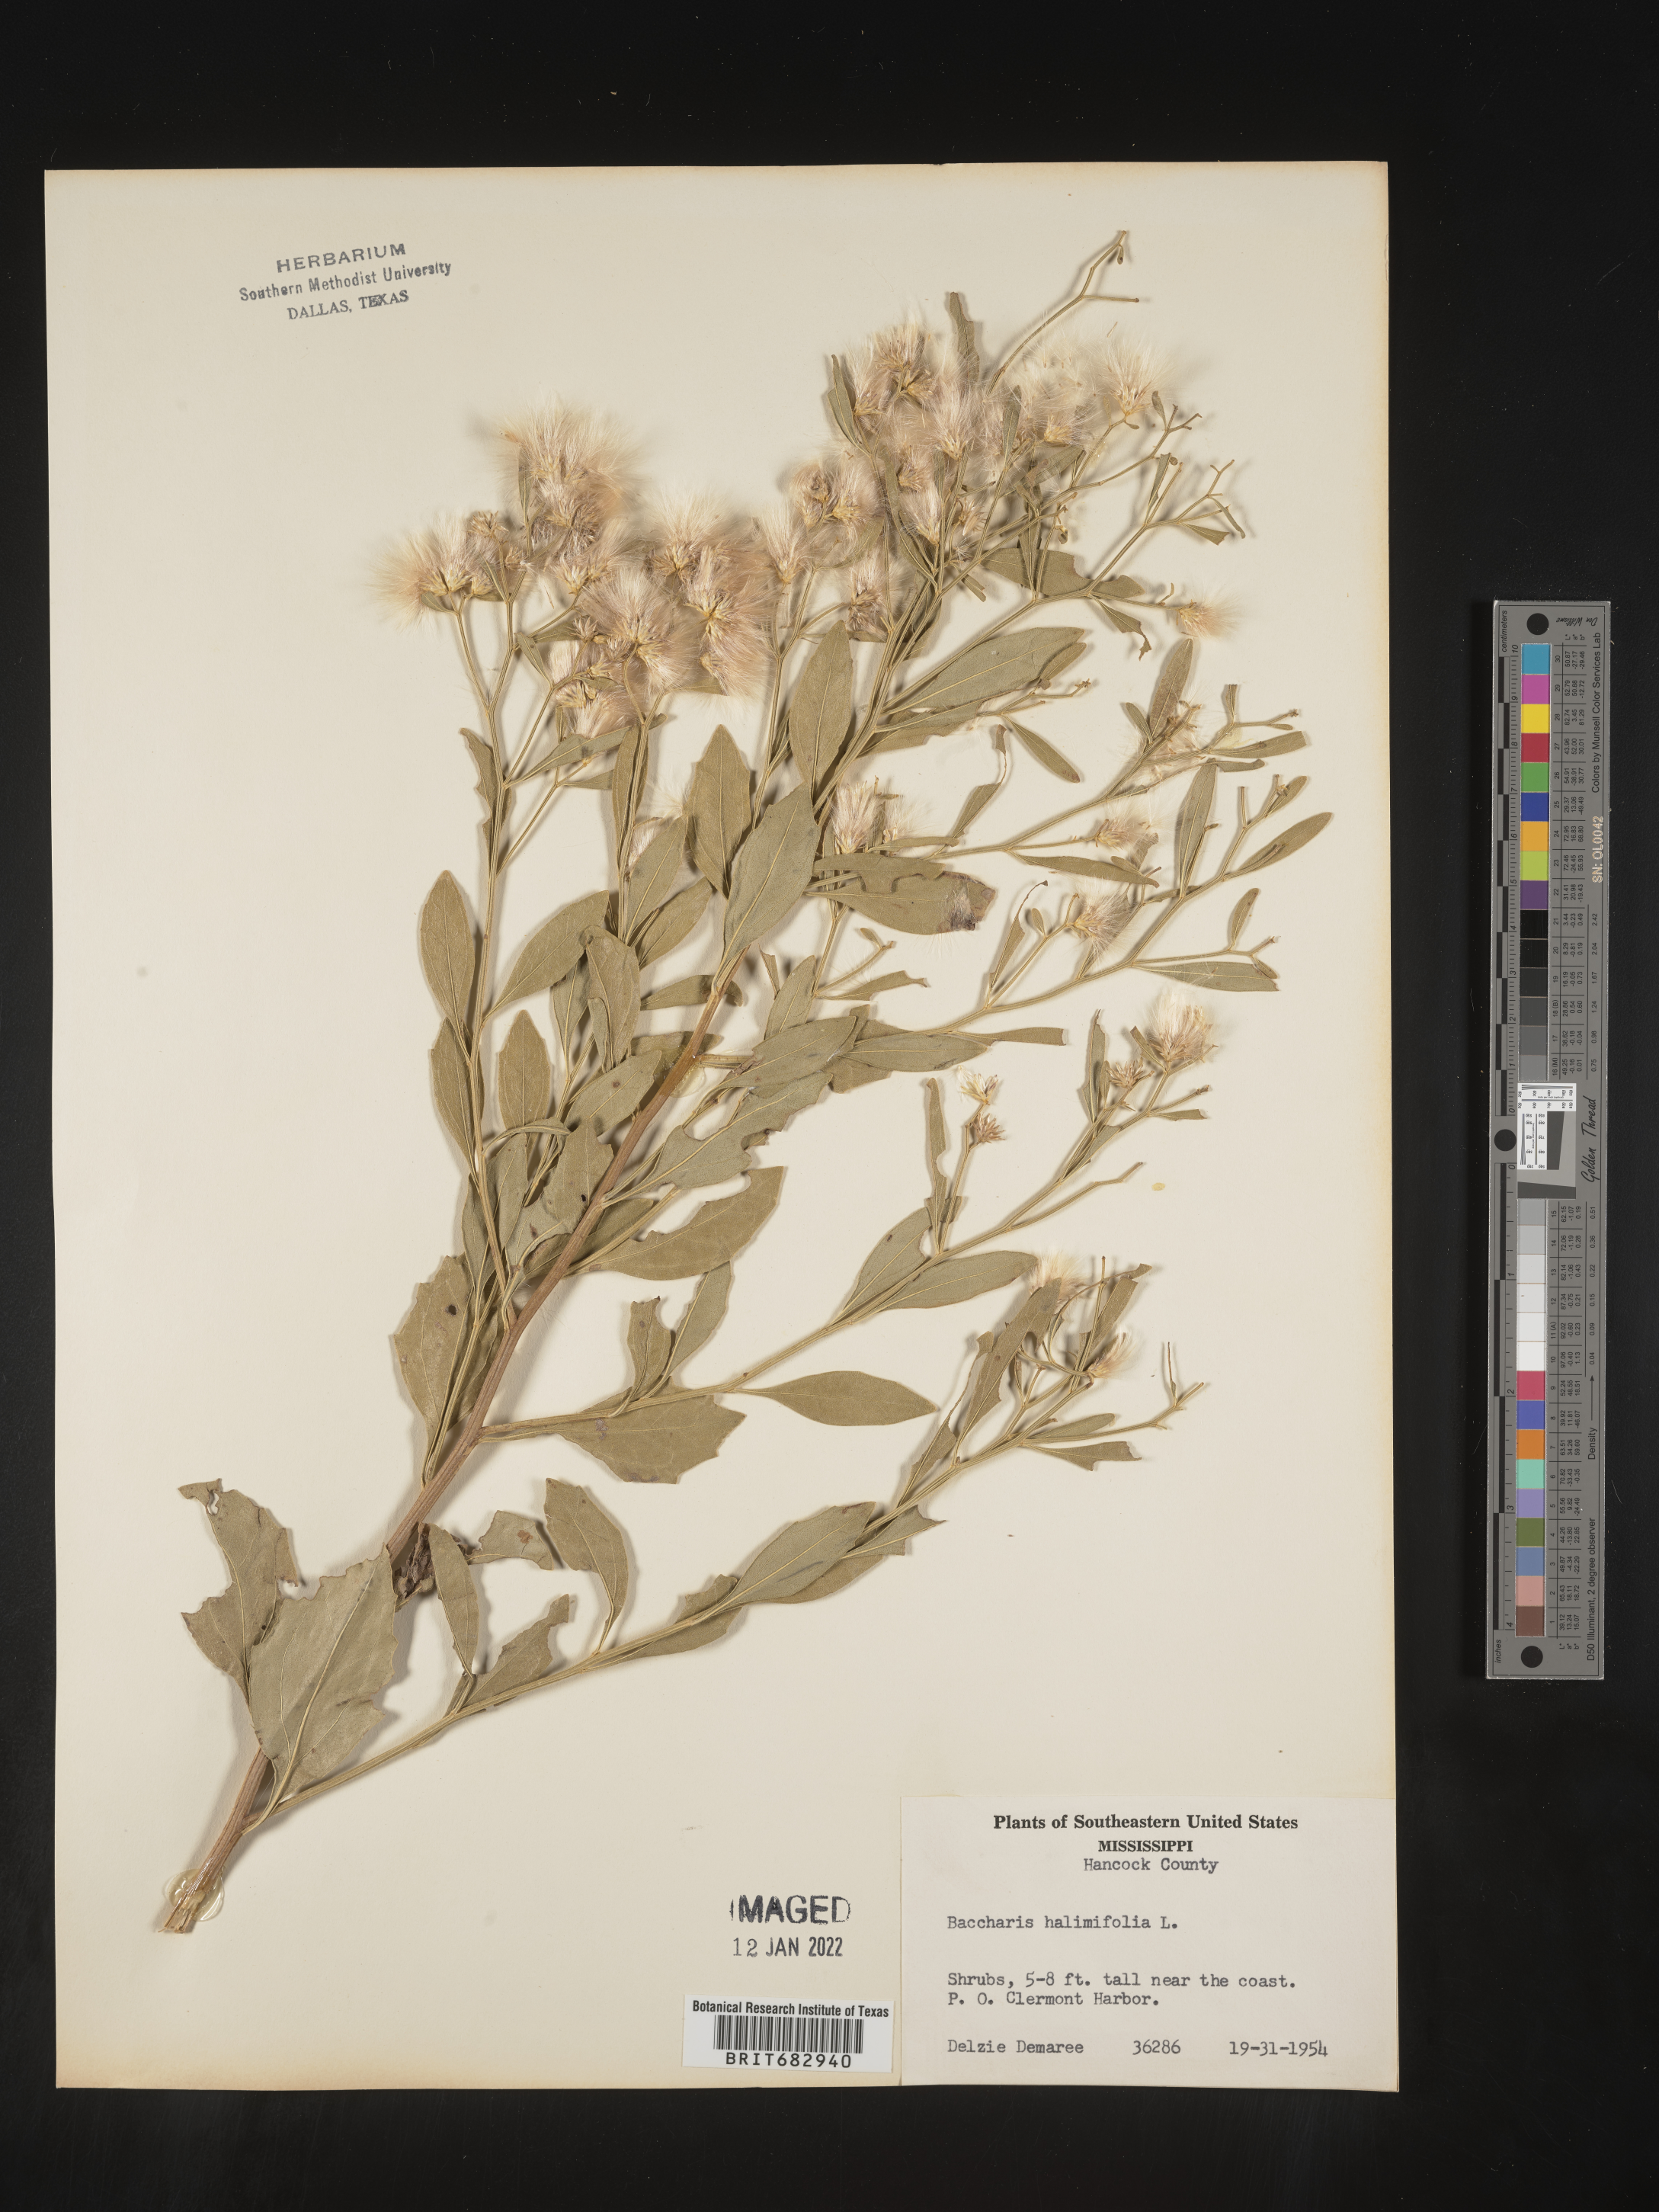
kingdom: Plantae
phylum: Tracheophyta
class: Magnoliopsida
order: Asterales
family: Asteraceae
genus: Nidorella
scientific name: Nidorella ivifolia
